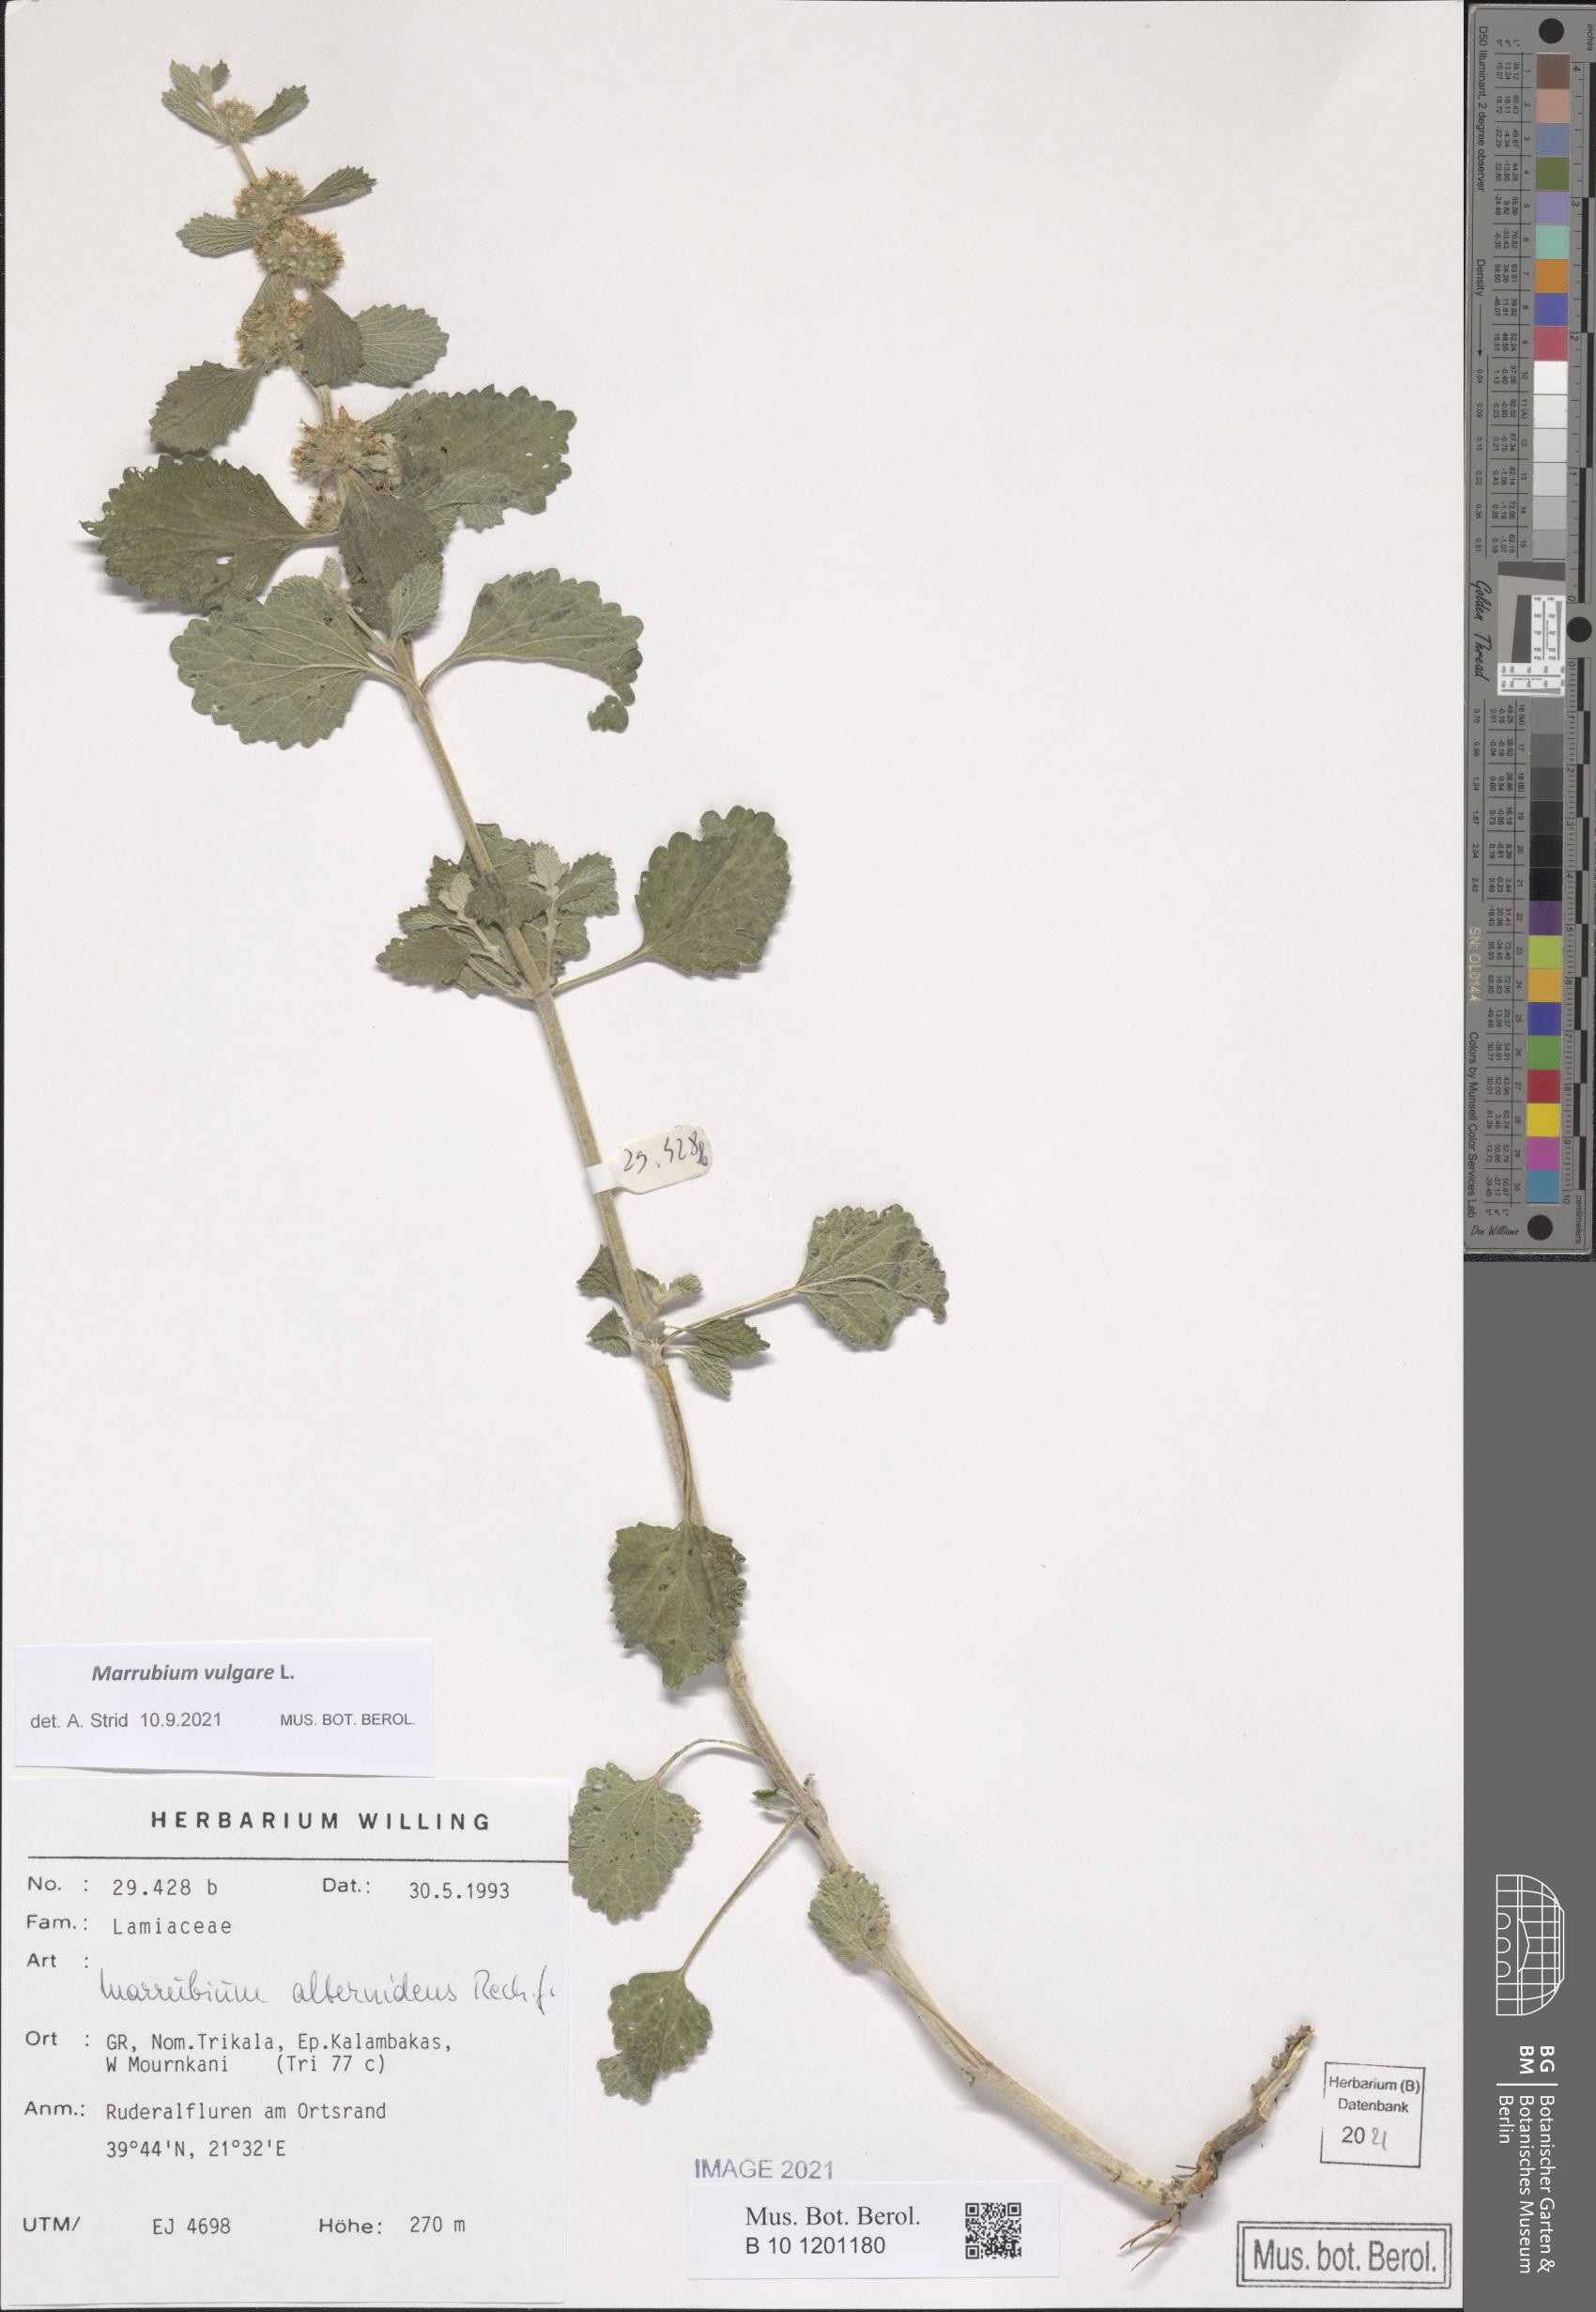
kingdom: Plantae
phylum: Tracheophyta
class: Magnoliopsida
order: Lamiales
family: Lamiaceae
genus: Marrubium
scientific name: Marrubium vulgare
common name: Horehound
